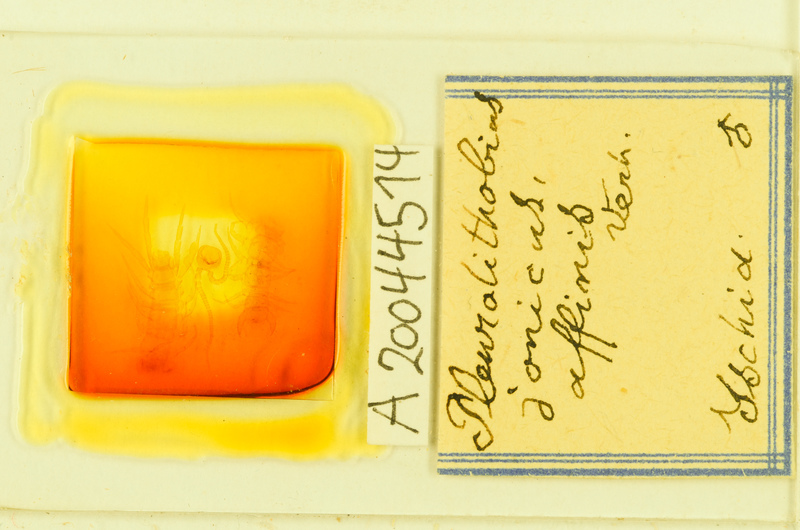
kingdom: Animalia
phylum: Arthropoda
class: Chilopoda
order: Lithobiomorpha
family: Lithobiidae
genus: Pleurolithobius
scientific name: Pleurolithobius
